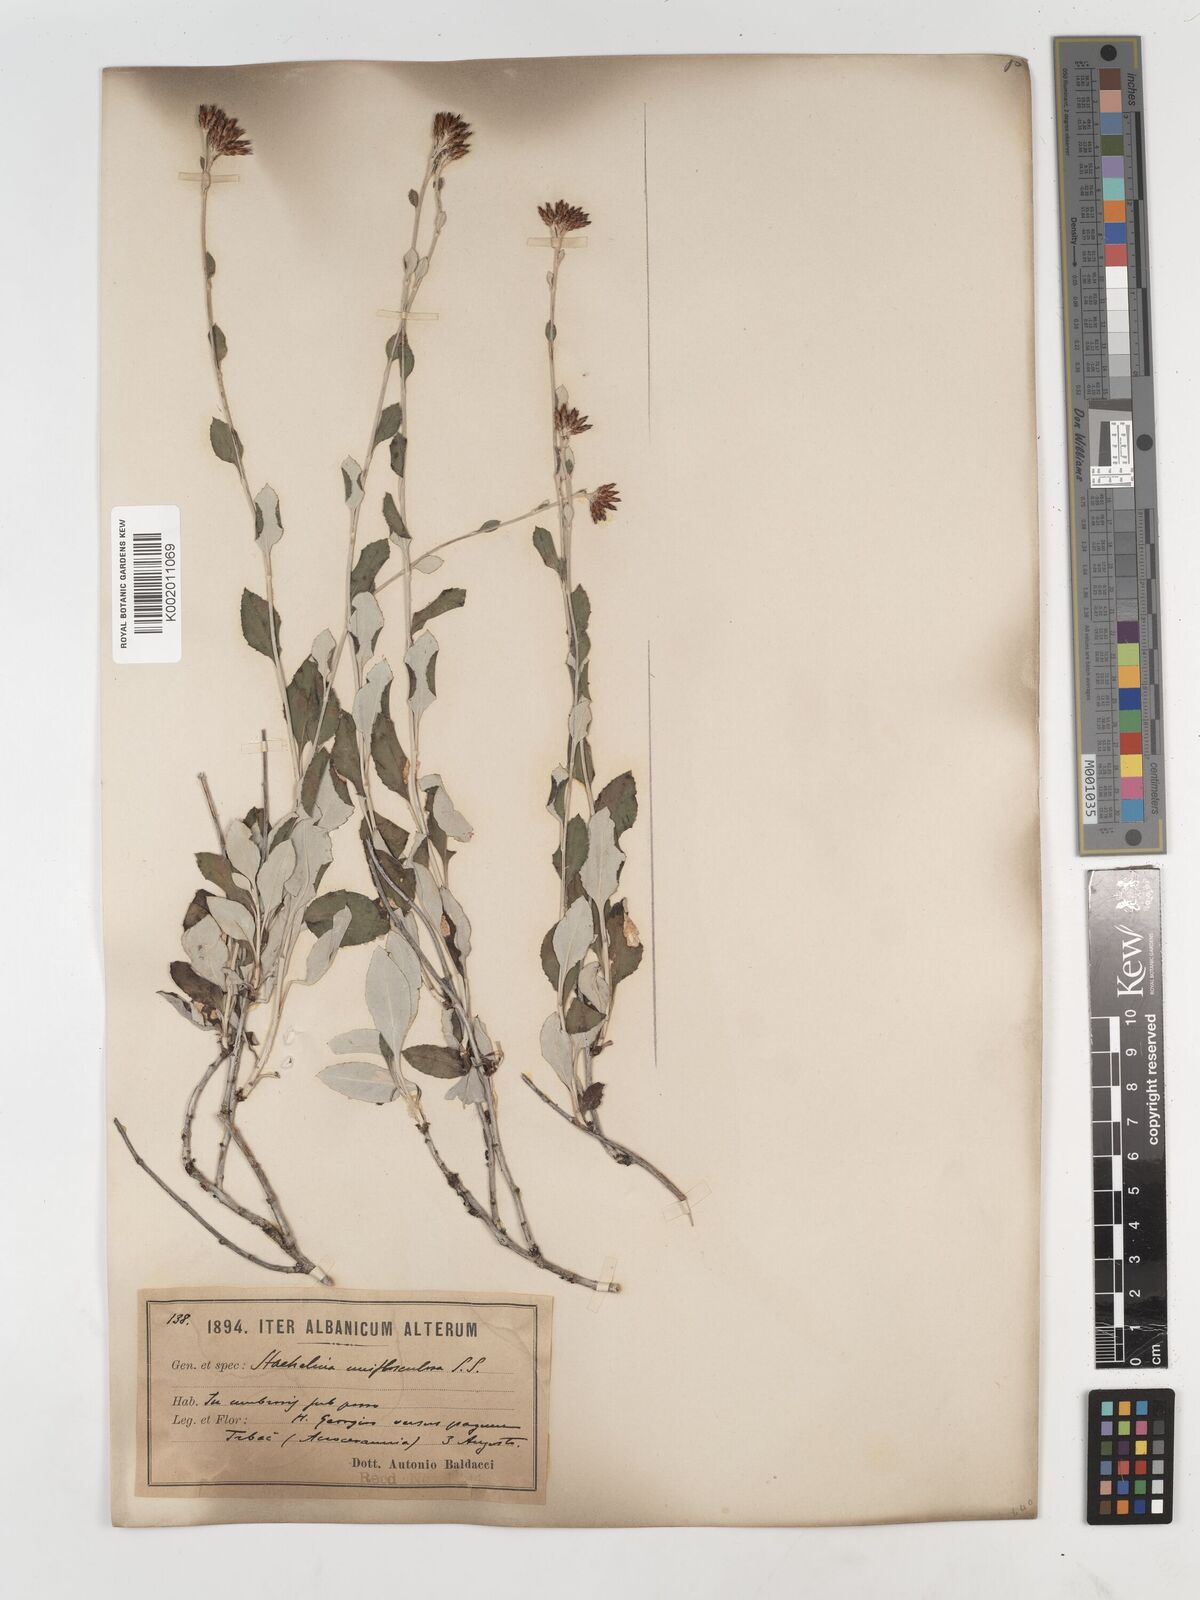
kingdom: Plantae
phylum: Tracheophyta
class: Magnoliopsida
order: Asterales
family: Asteraceae
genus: Staehelina
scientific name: Staehelina uniflosculosa
